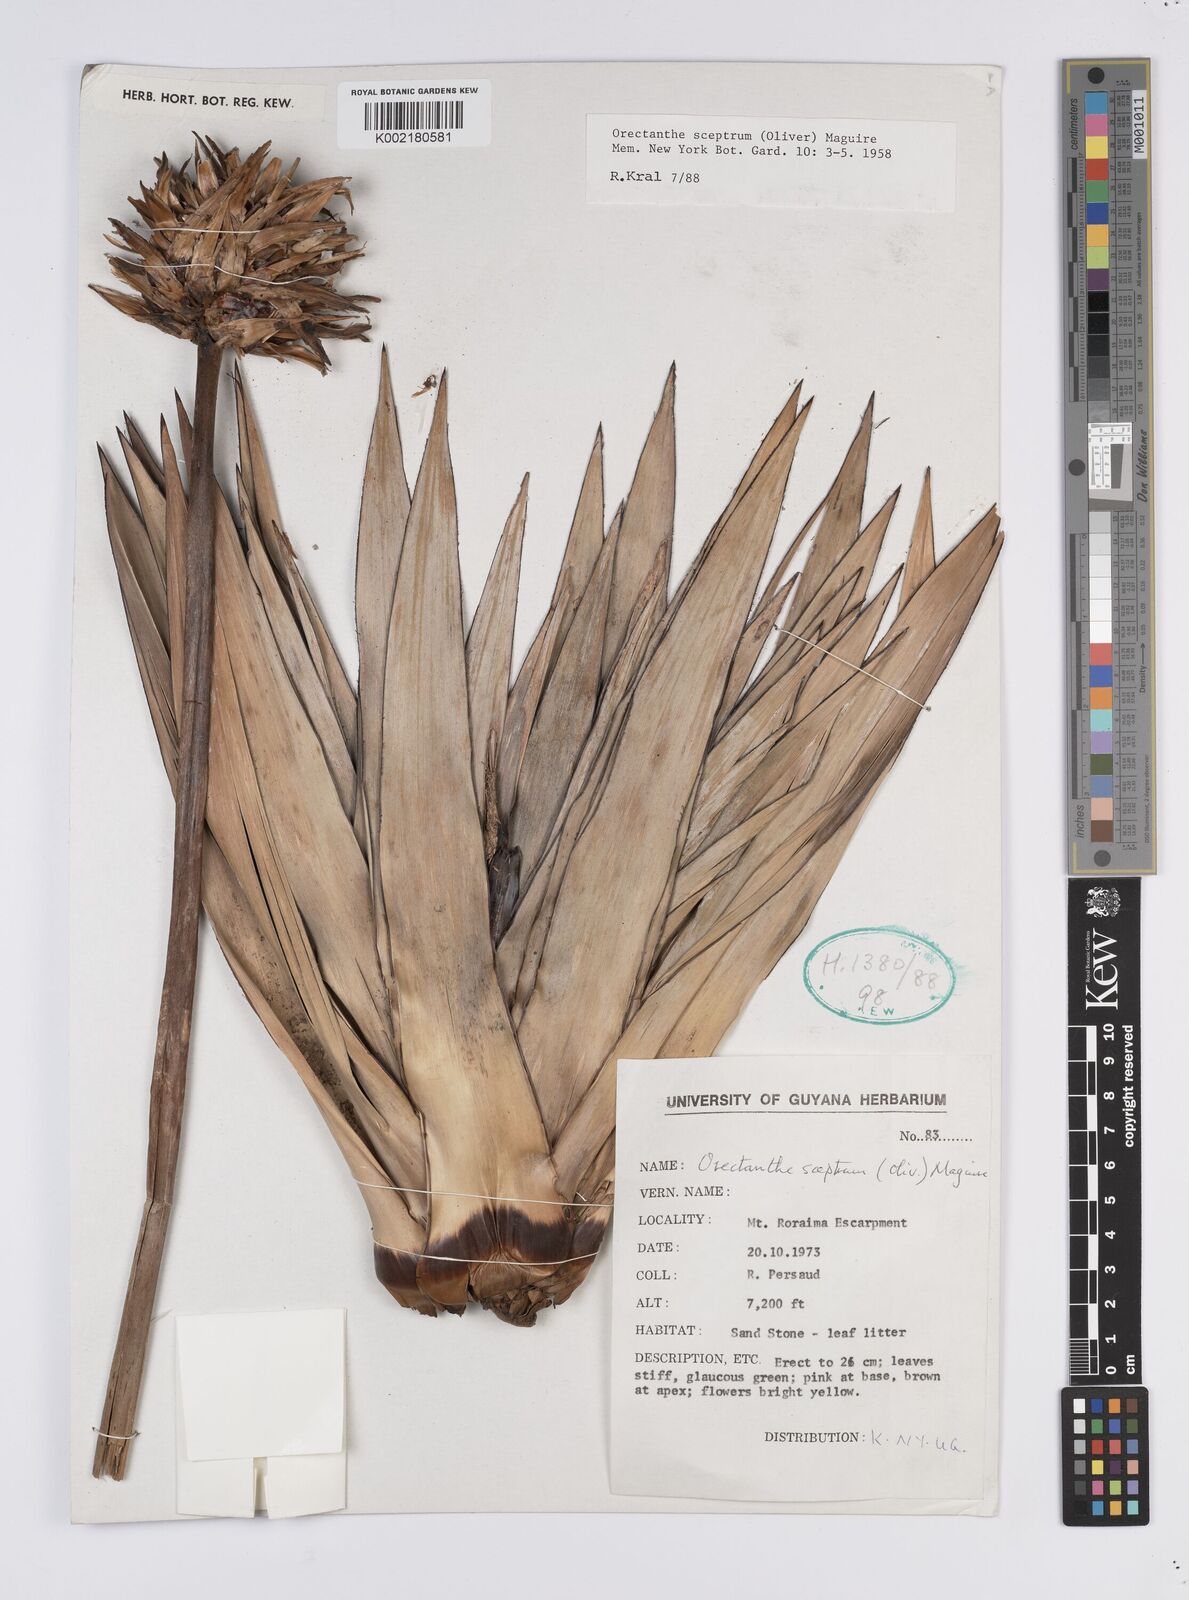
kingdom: Plantae
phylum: Tracheophyta
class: Liliopsida
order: Poales
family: Xyridaceae
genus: Orectanthe
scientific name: Orectanthe sceptrum
